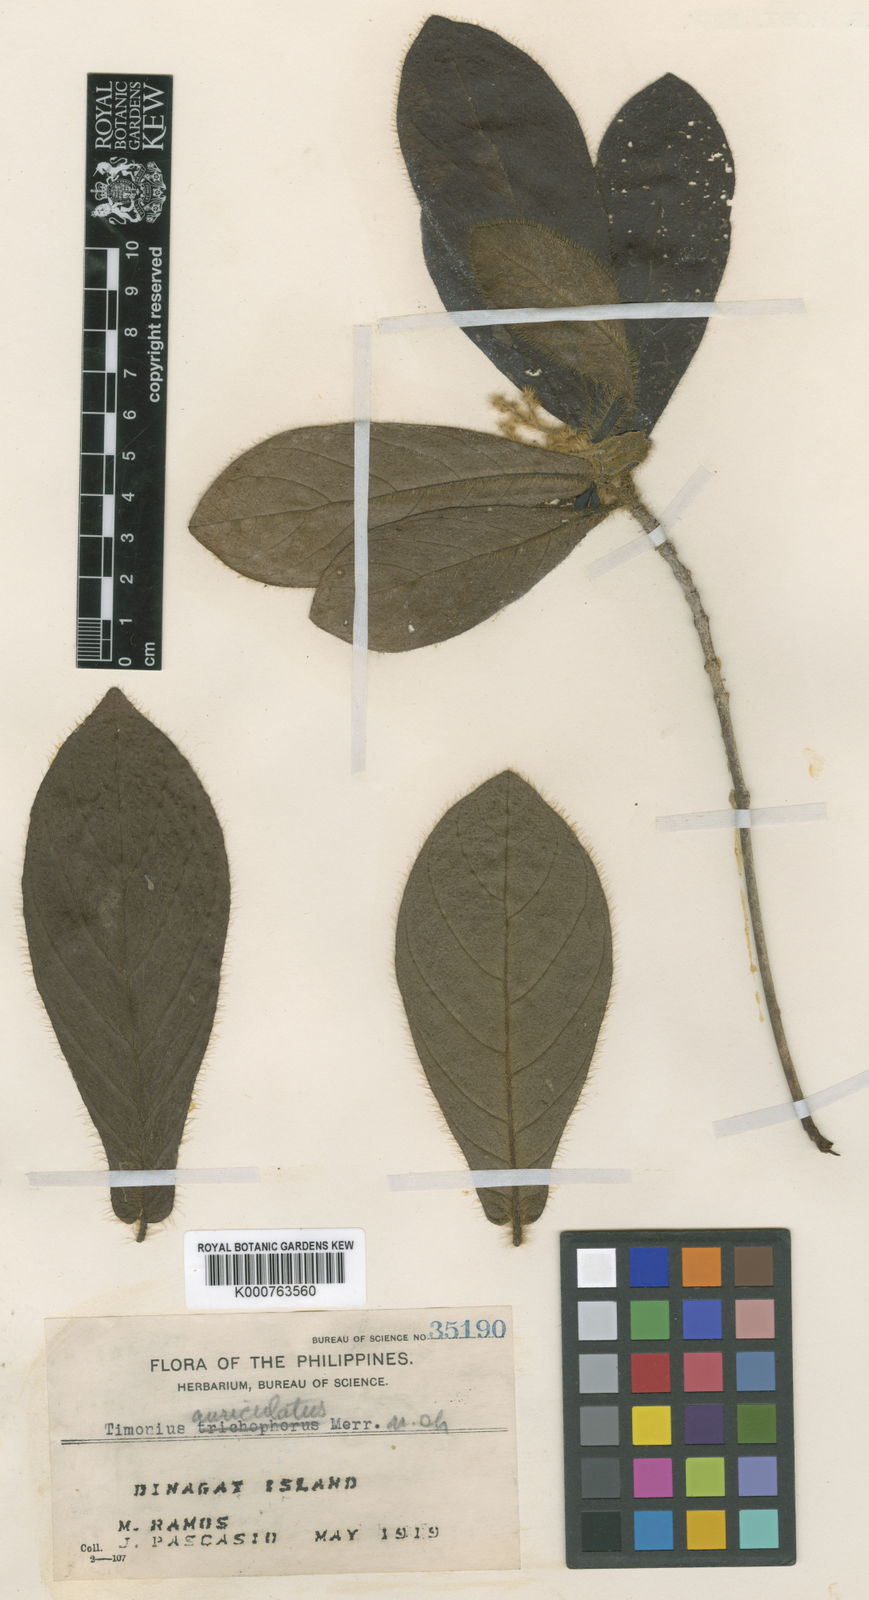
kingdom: Plantae
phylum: Tracheophyta
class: Magnoliopsida
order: Gentianales
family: Rubiaceae
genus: Timonius
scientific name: Timonius auriculatus
